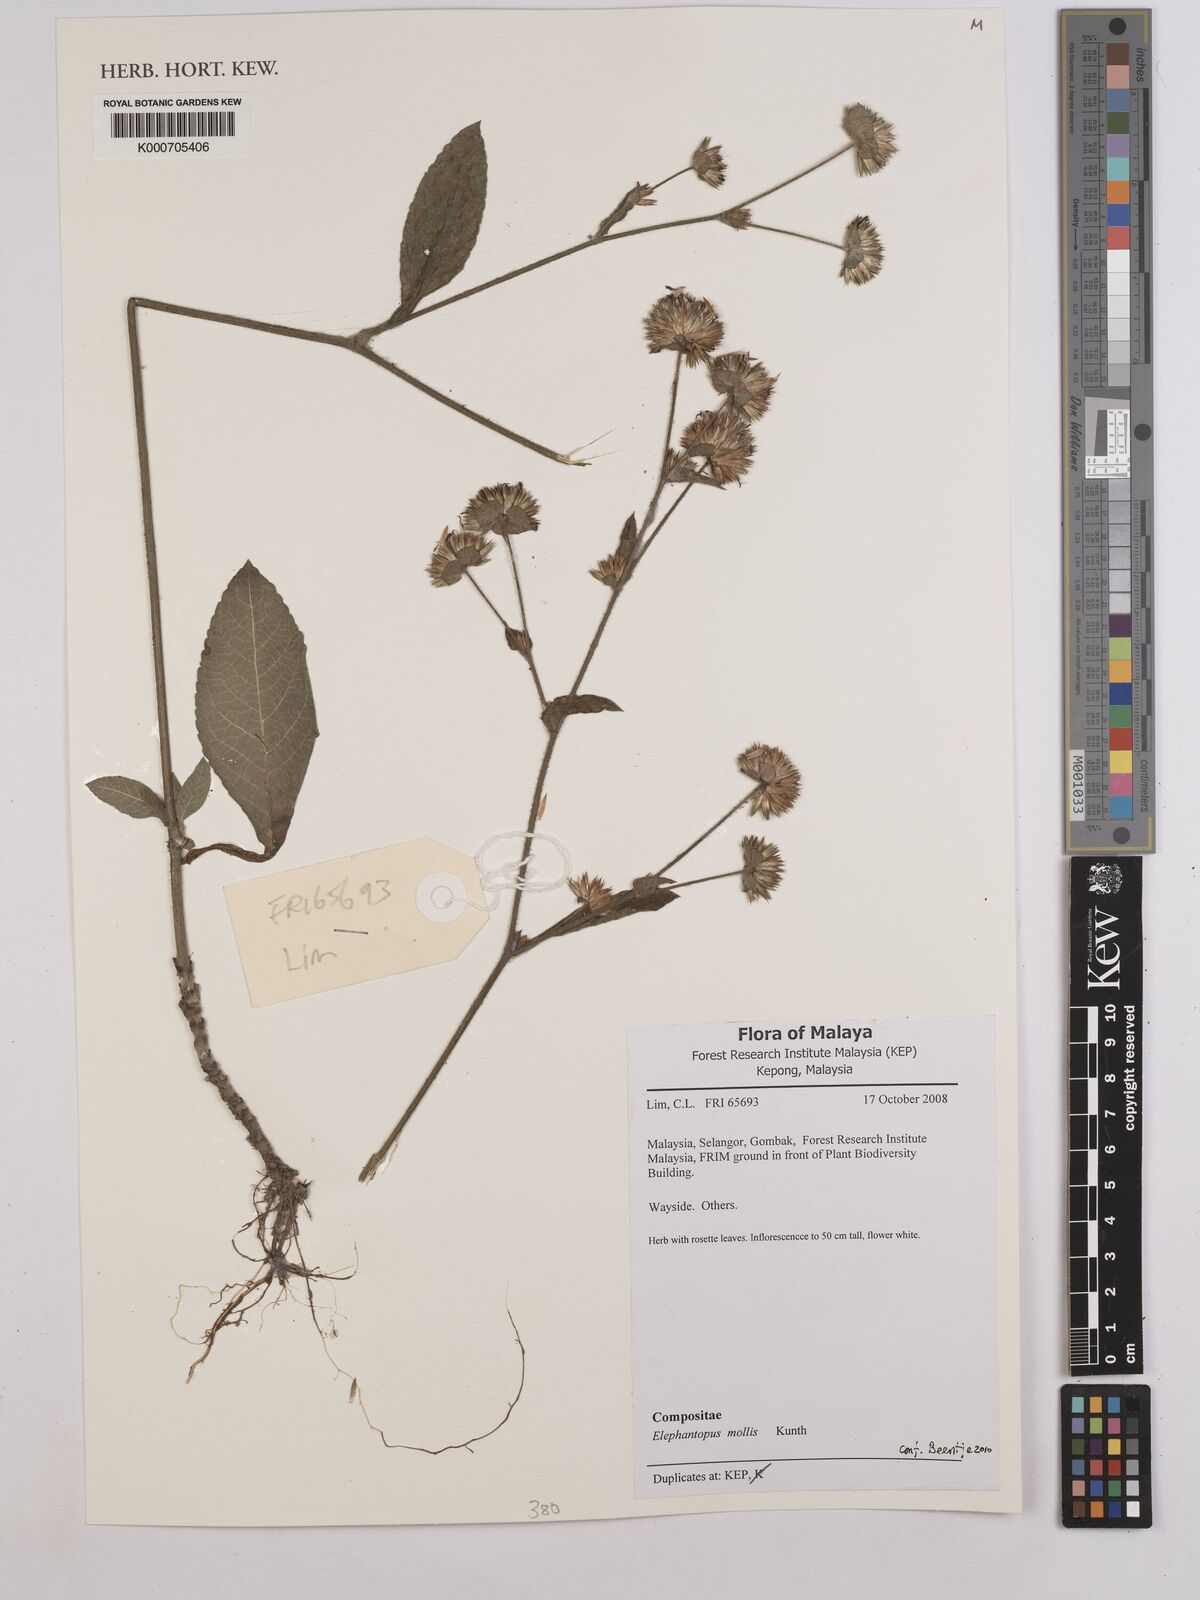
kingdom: Plantae
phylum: Tracheophyta
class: Magnoliopsida
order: Asterales
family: Asteraceae
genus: Elephantopus
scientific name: Elephantopus mollis
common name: Soft elephantsfoot
